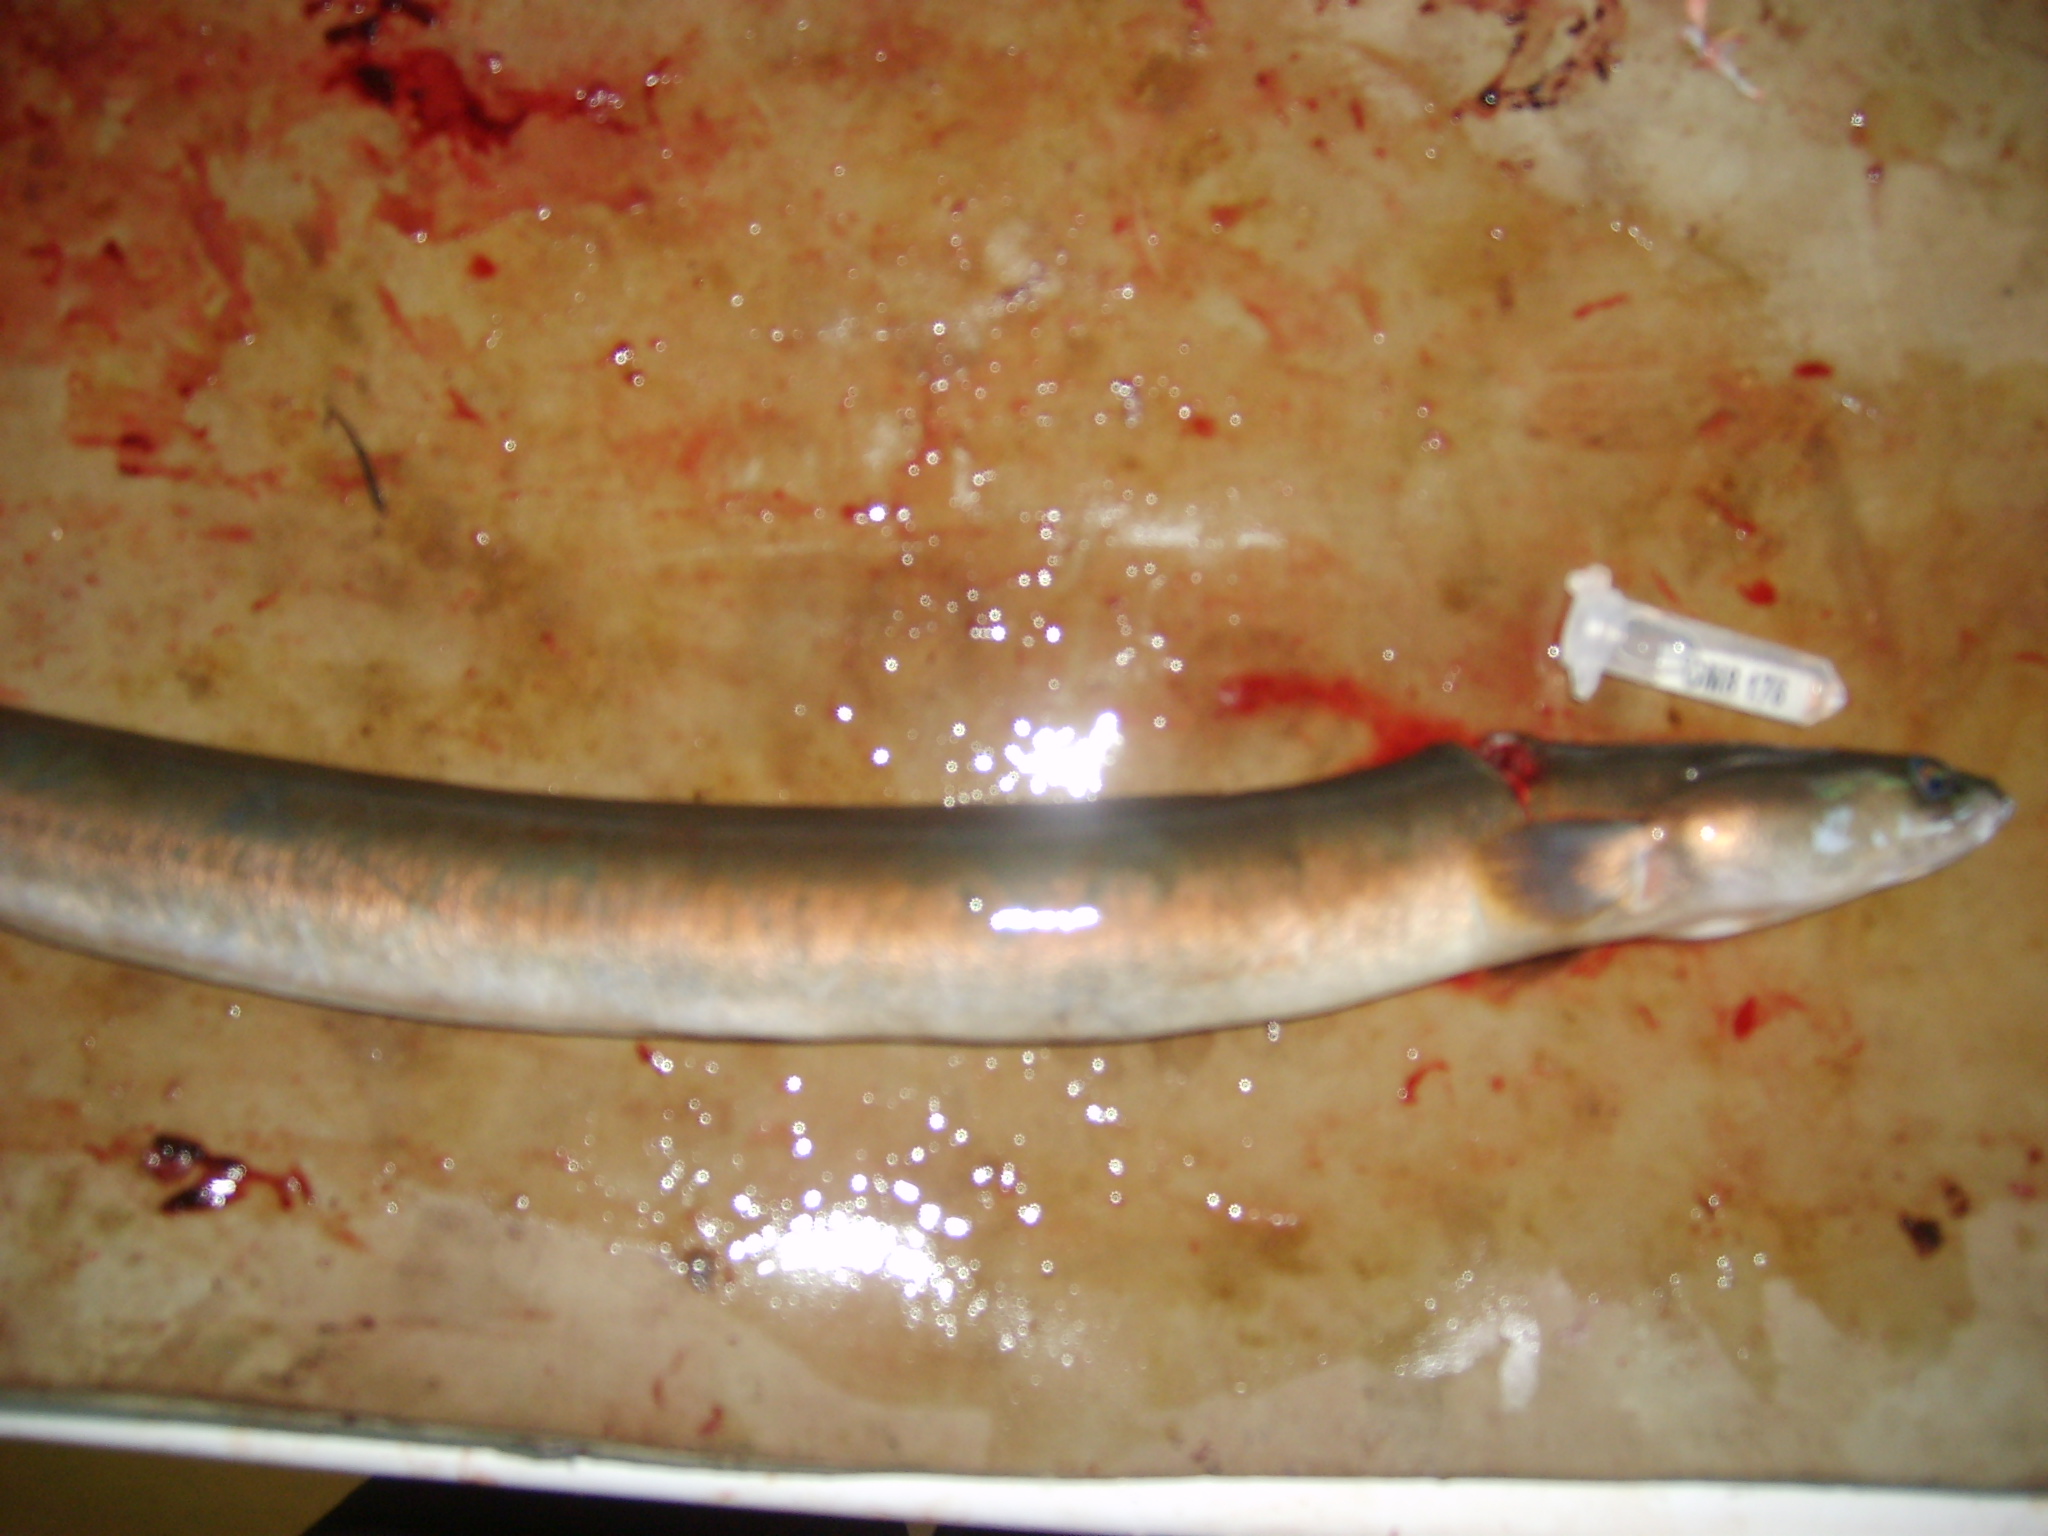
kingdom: Animalia
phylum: Chordata
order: Anguilliformes
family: Anguillidae
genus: Anguilla
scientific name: Anguilla mossambica
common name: African longfin eel
